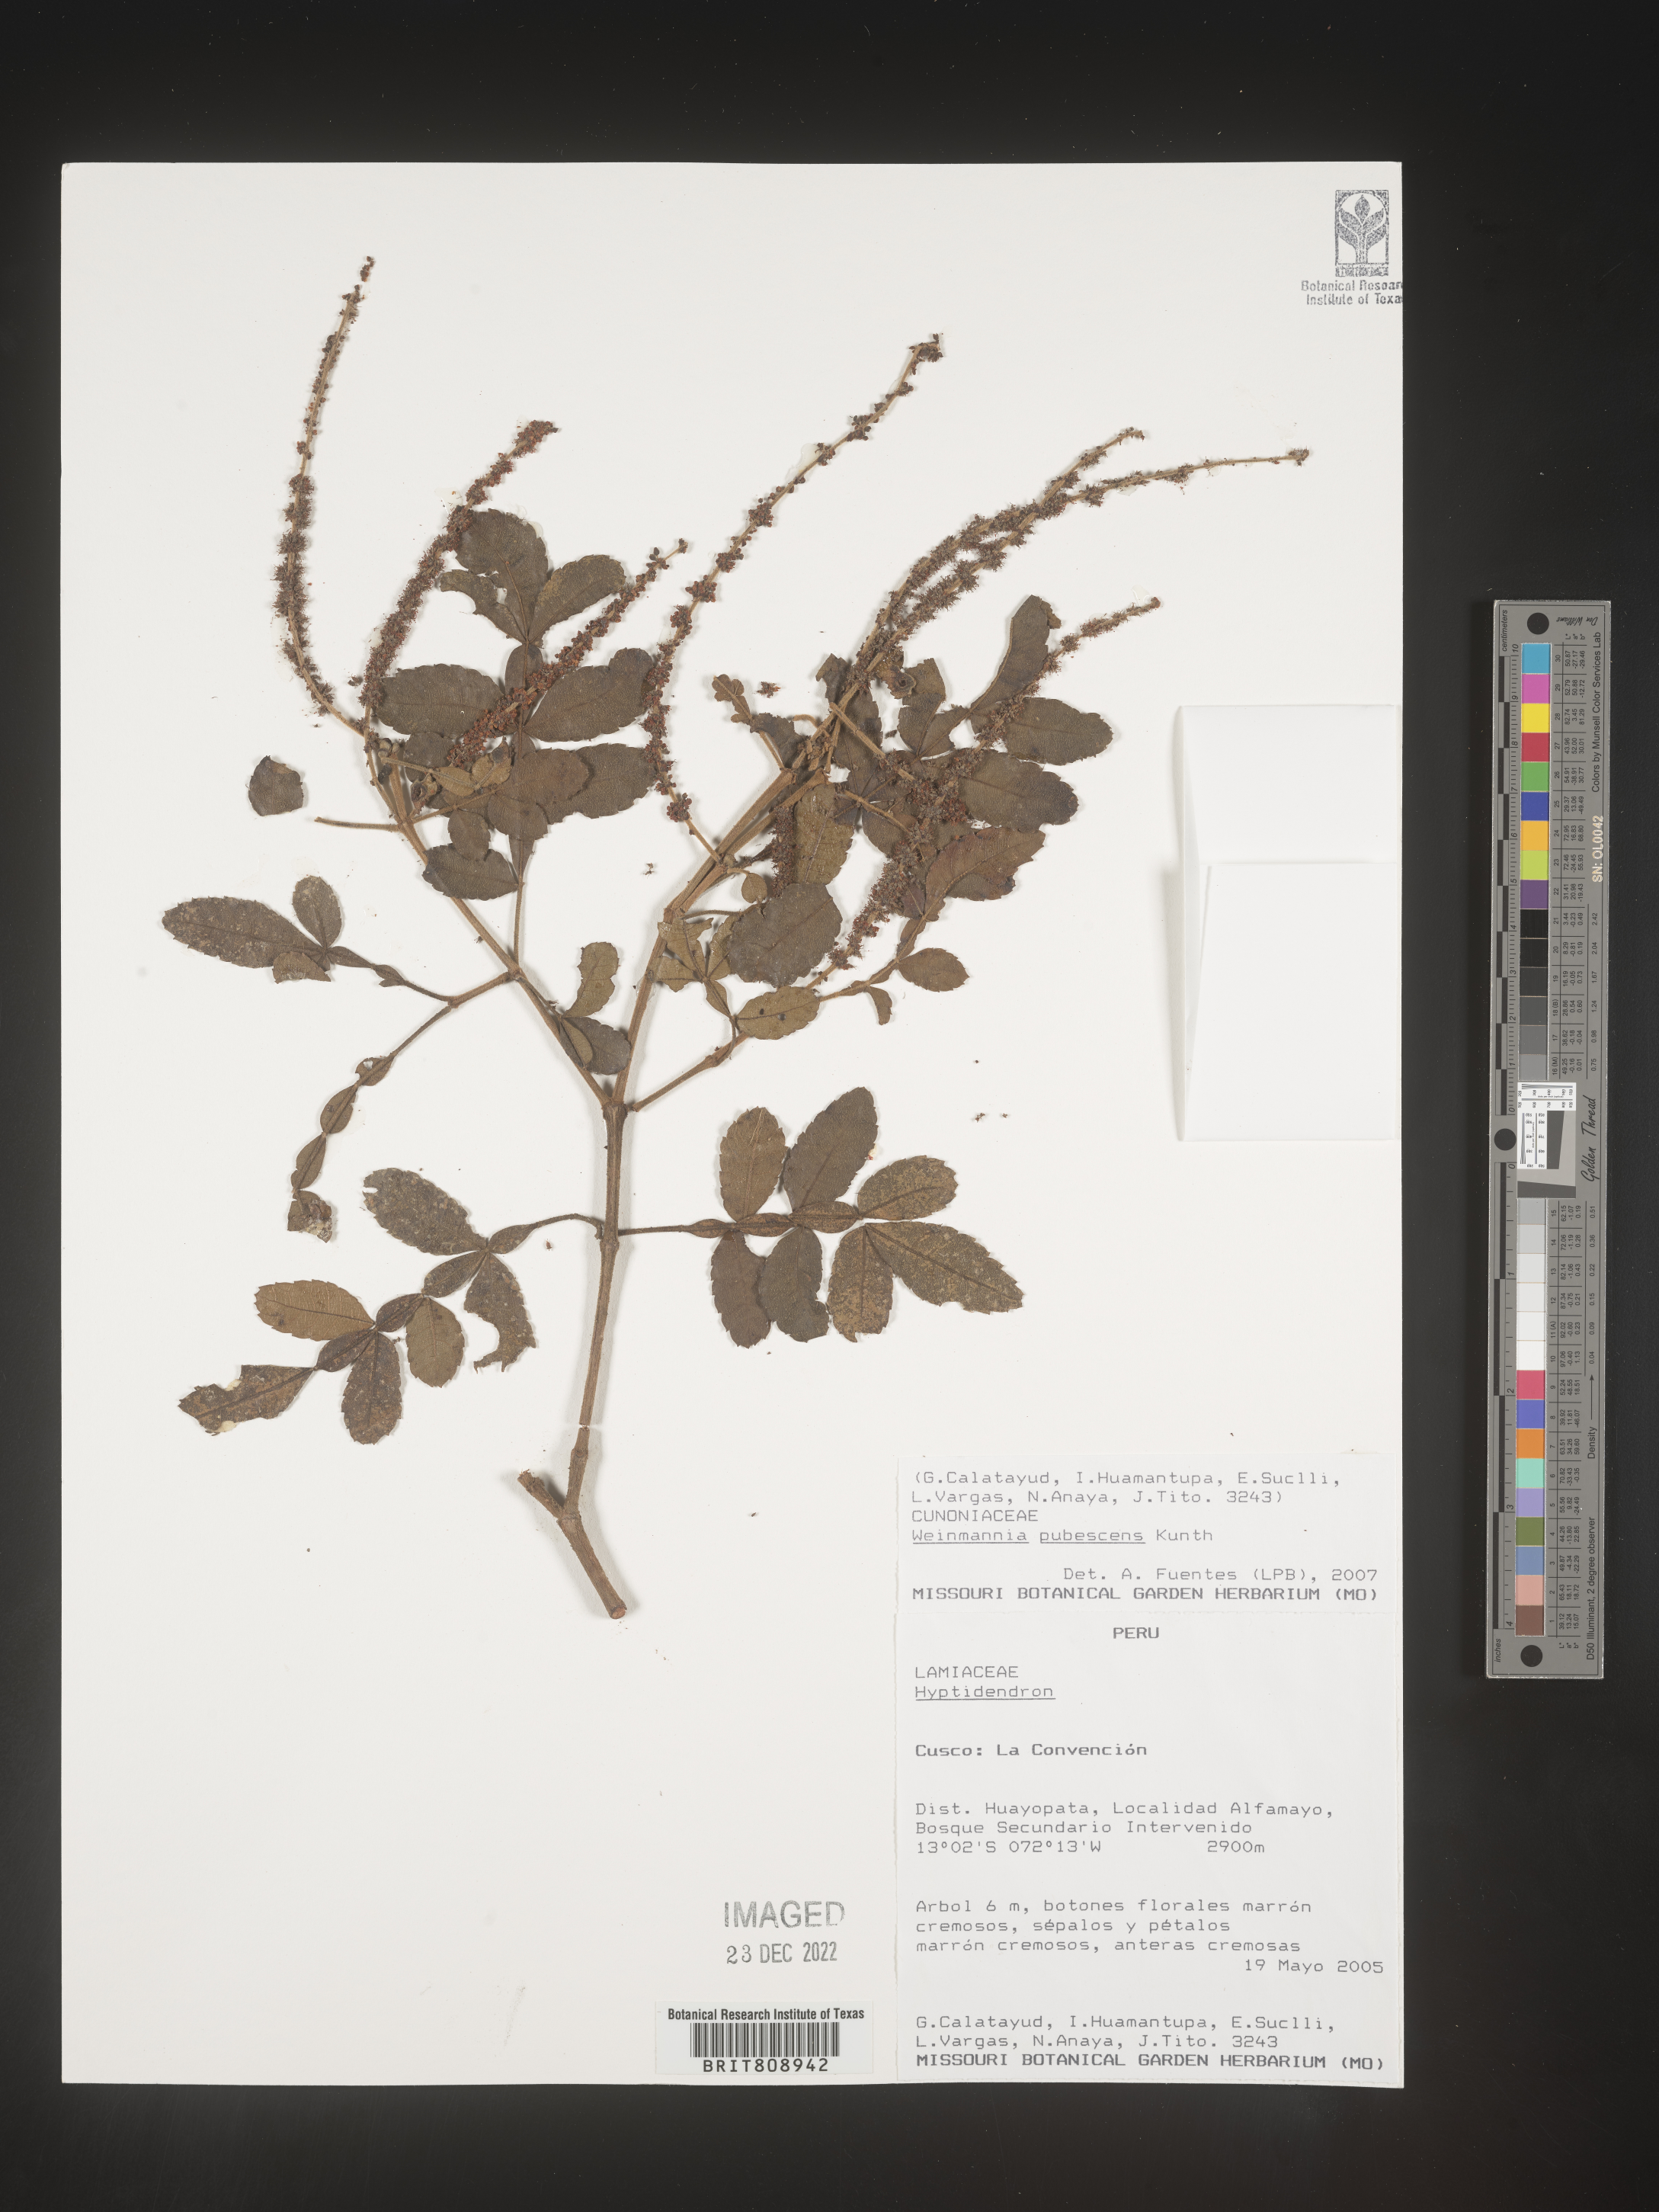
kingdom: Plantae
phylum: Tracheophyta
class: Magnoliopsida
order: Oxalidales
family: Cunoniaceae
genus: Weinmannia
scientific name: Weinmannia
